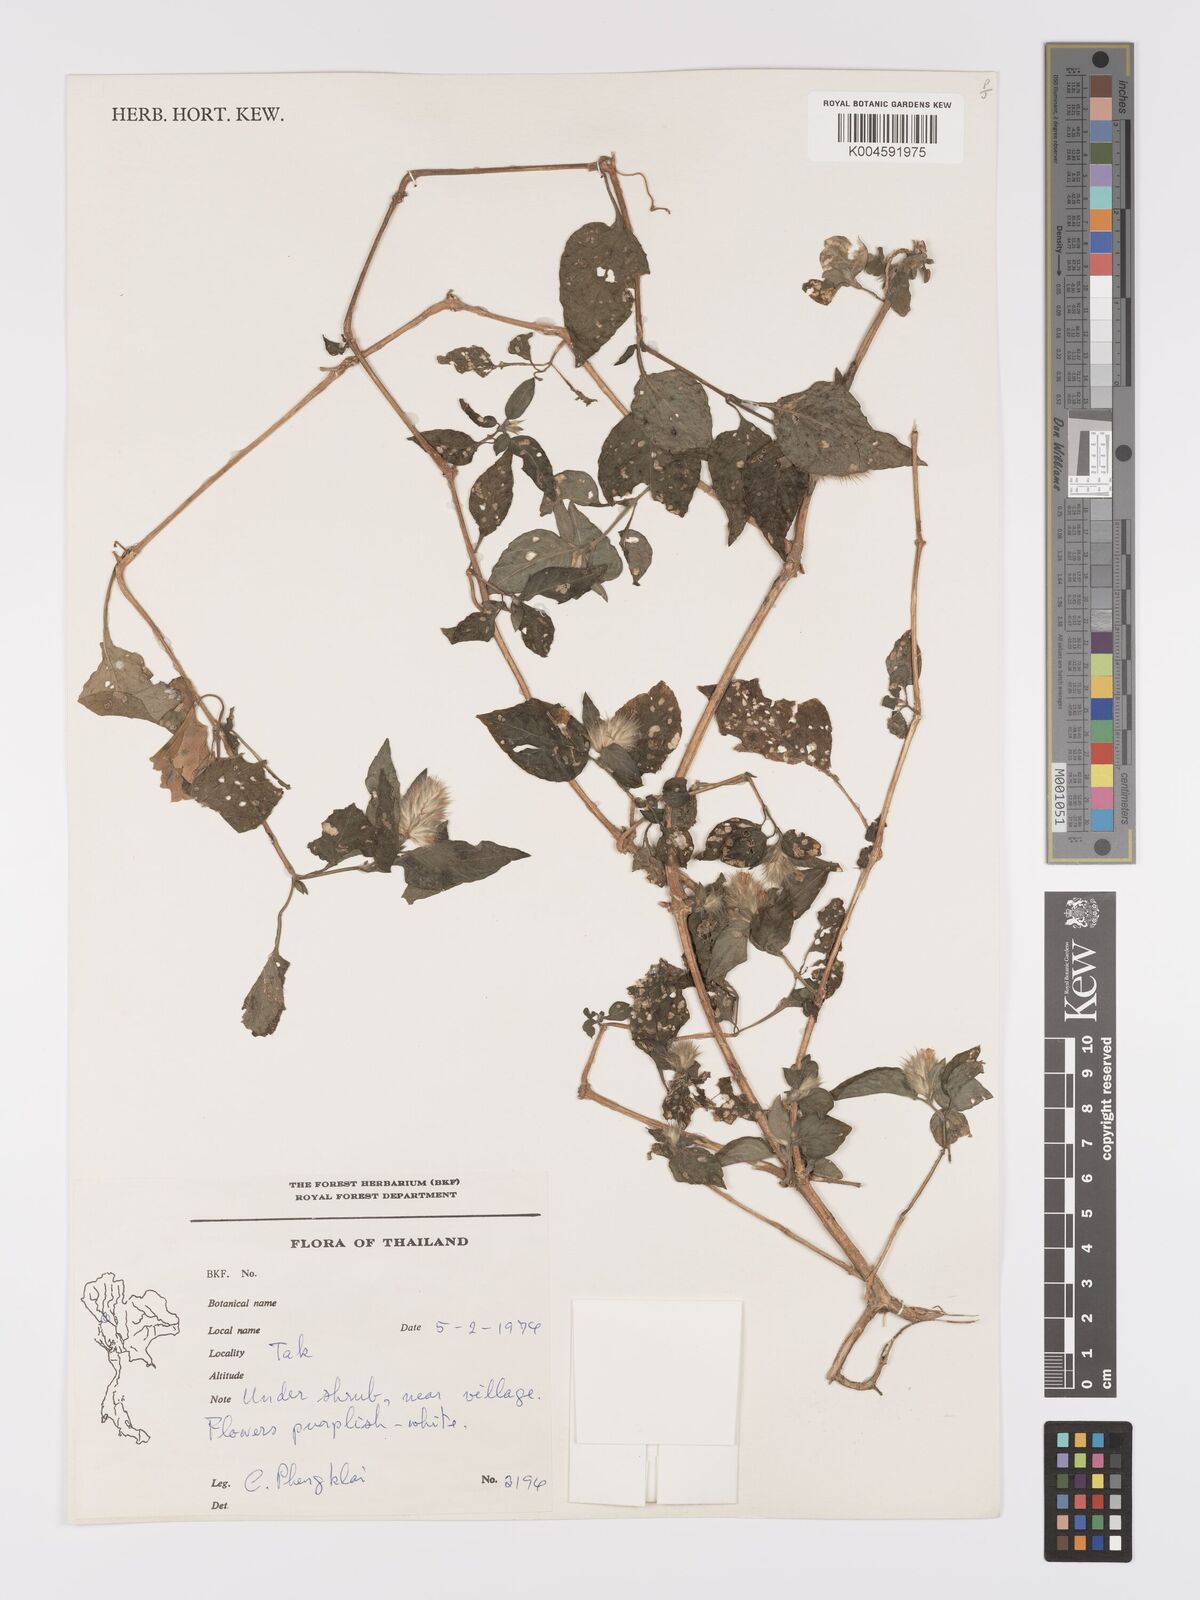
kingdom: Plantae
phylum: Tracheophyta
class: Magnoliopsida
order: Lamiales
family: Acanthaceae
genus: Lepidagathis
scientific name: Lepidagathis incurva
